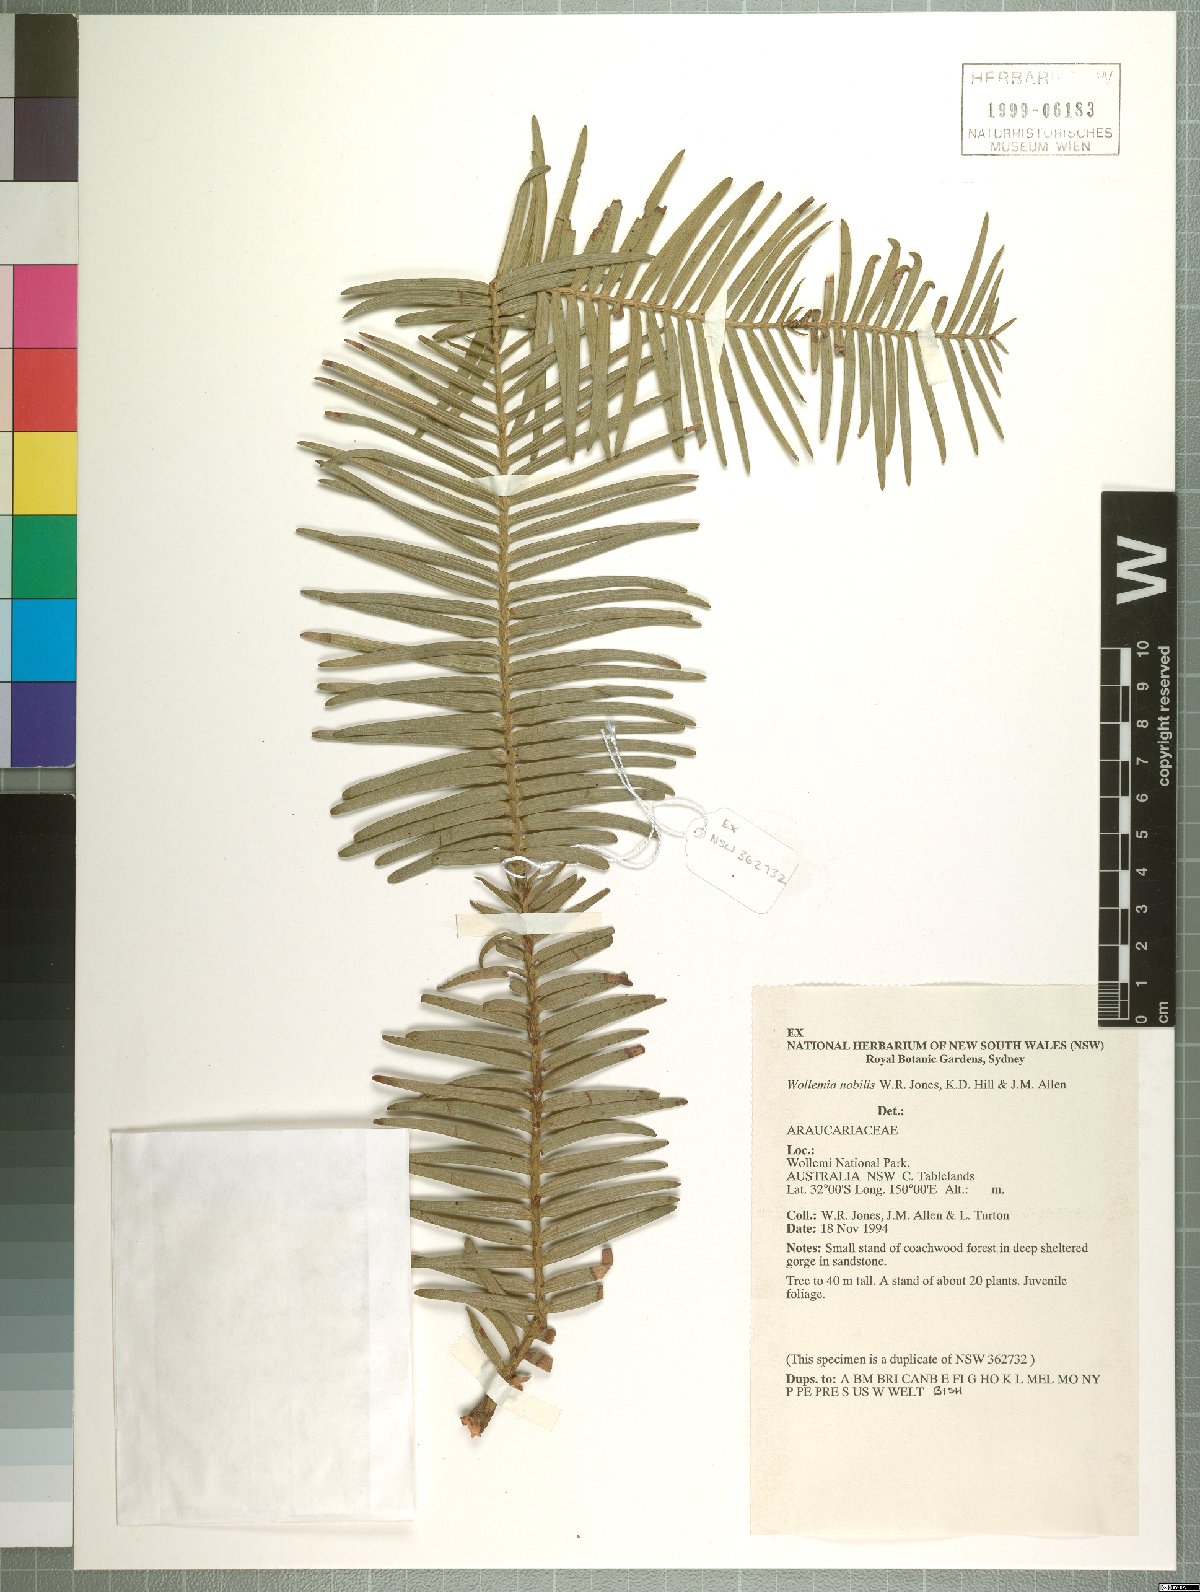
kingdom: Plantae
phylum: Tracheophyta
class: Pinopsida
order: Pinales
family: Araucariaceae
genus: Wollemia
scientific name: Wollemia nobilis
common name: Wollemi pine
